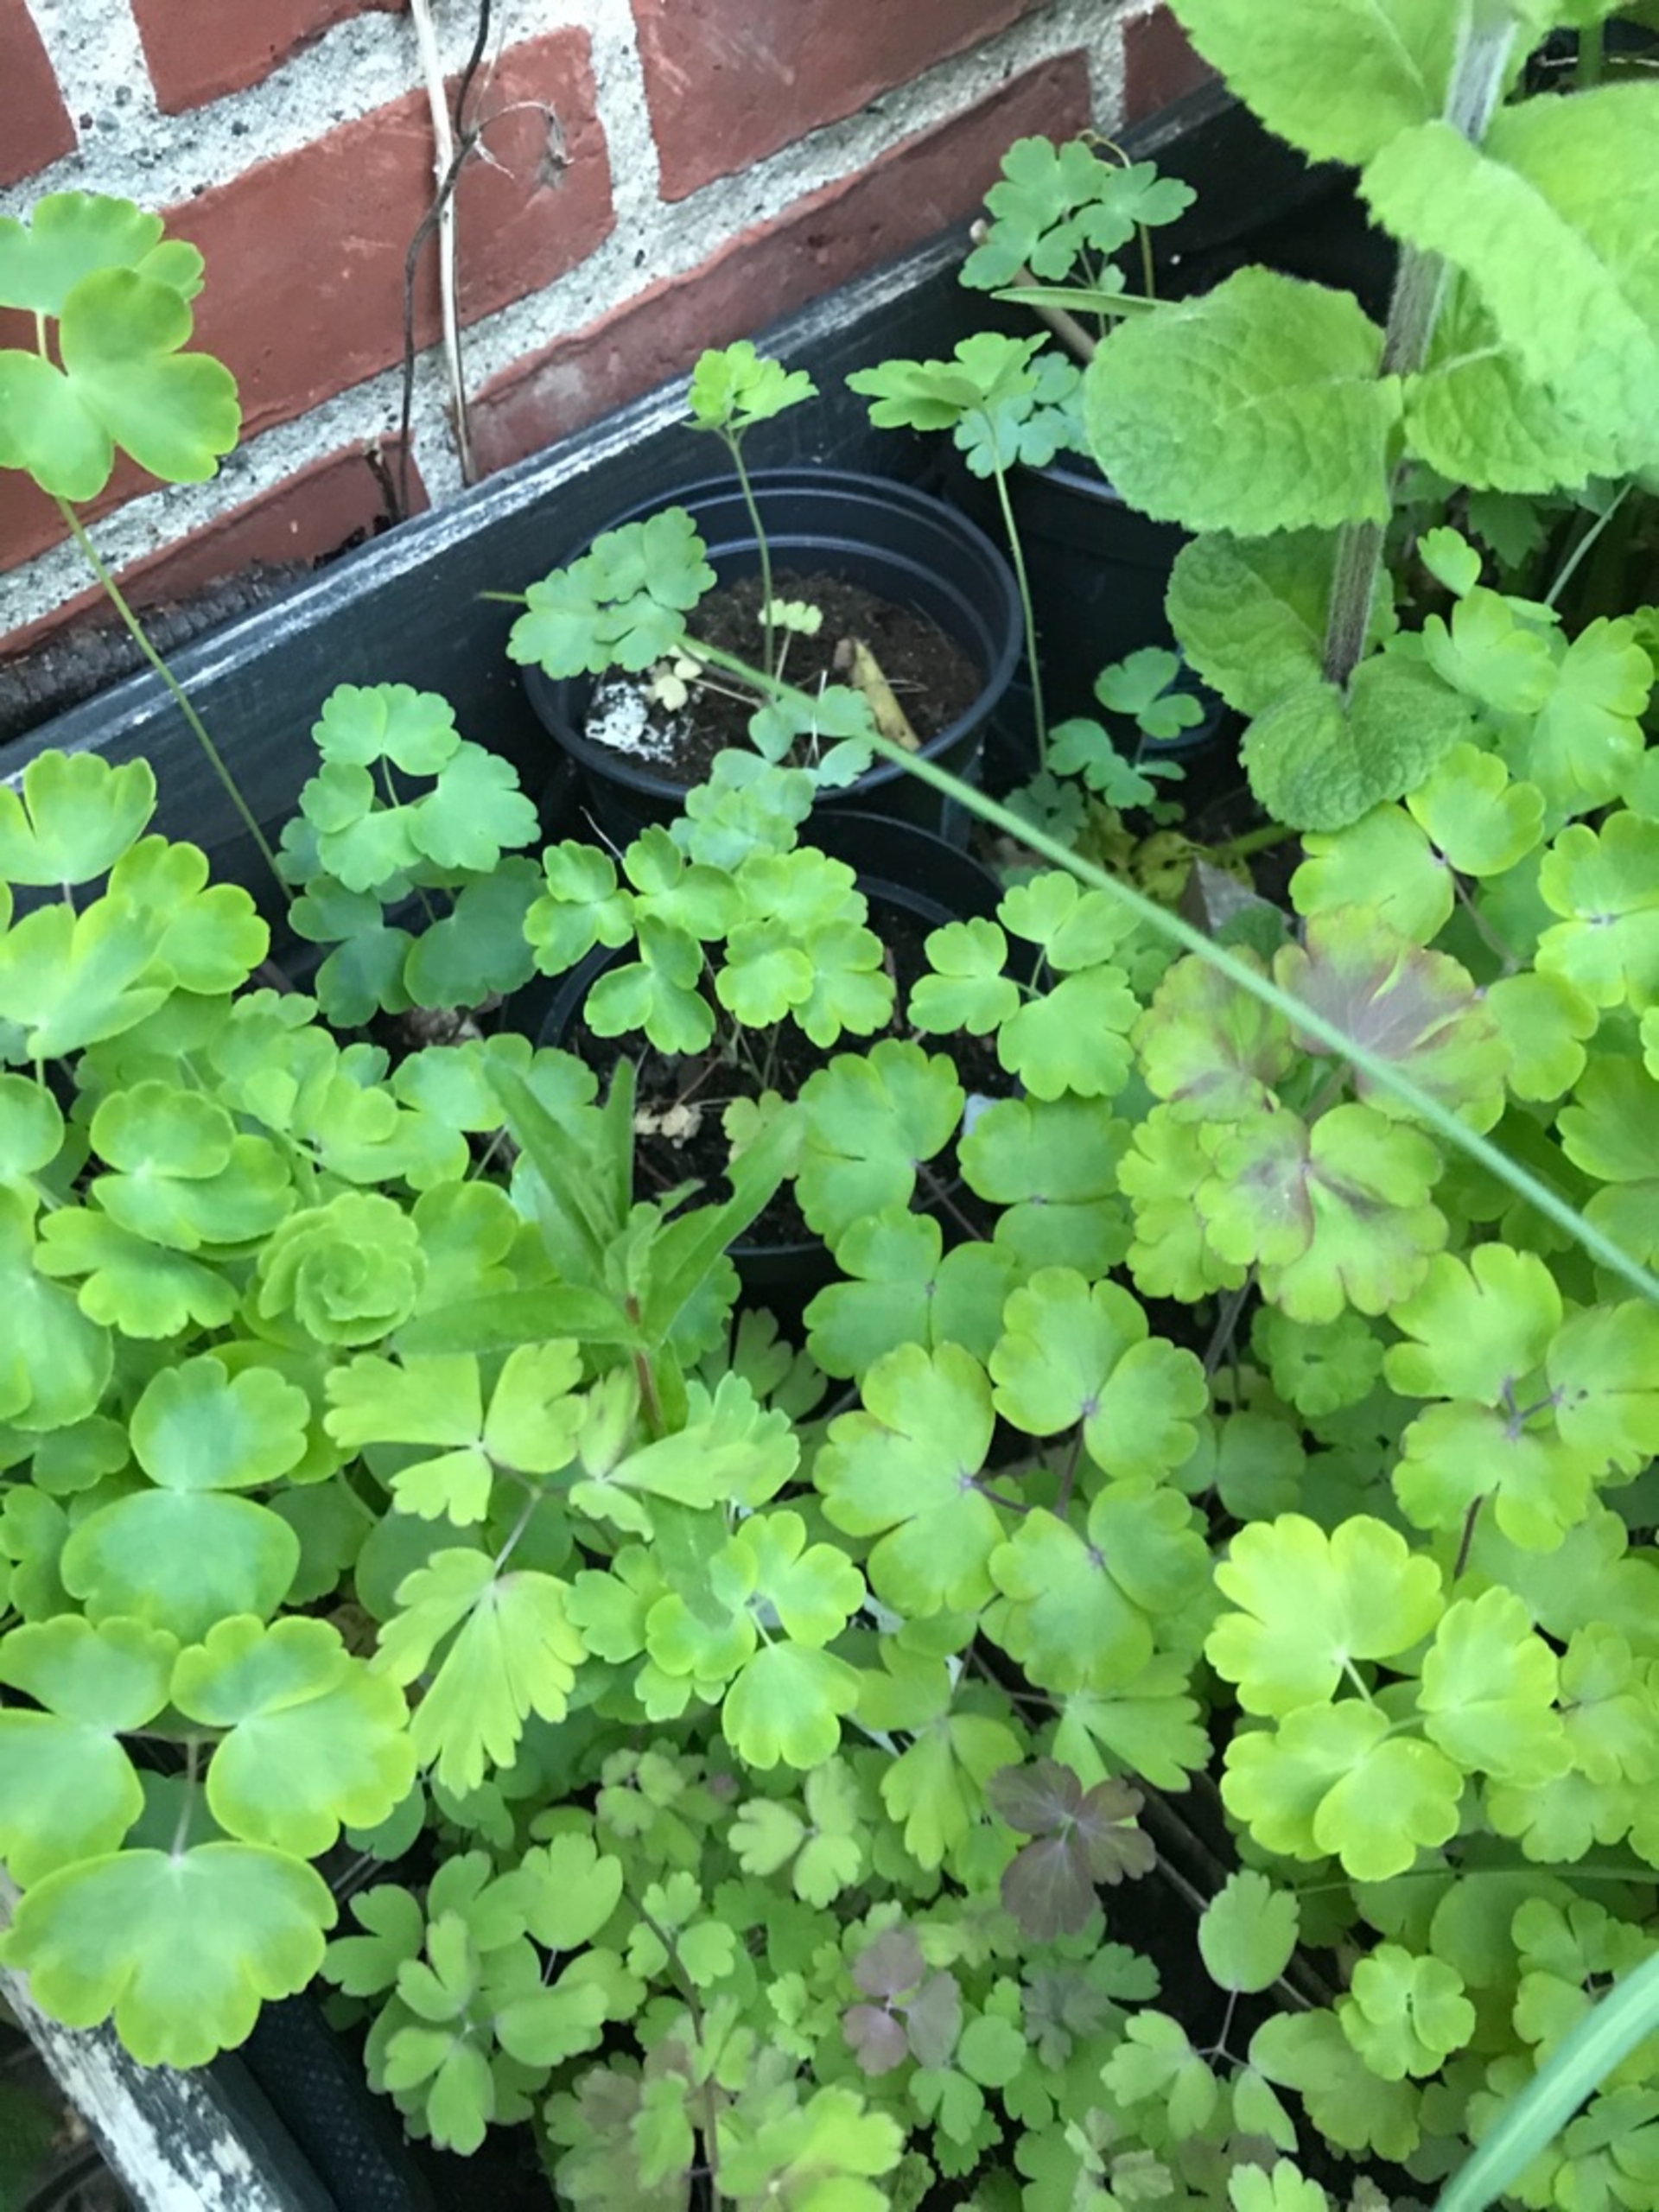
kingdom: Plantae
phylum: Tracheophyta
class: Magnoliopsida
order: Ranunculales
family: Ranunculaceae
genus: Aquilegia
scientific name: Aquilegia vulgaris
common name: Akeleje
